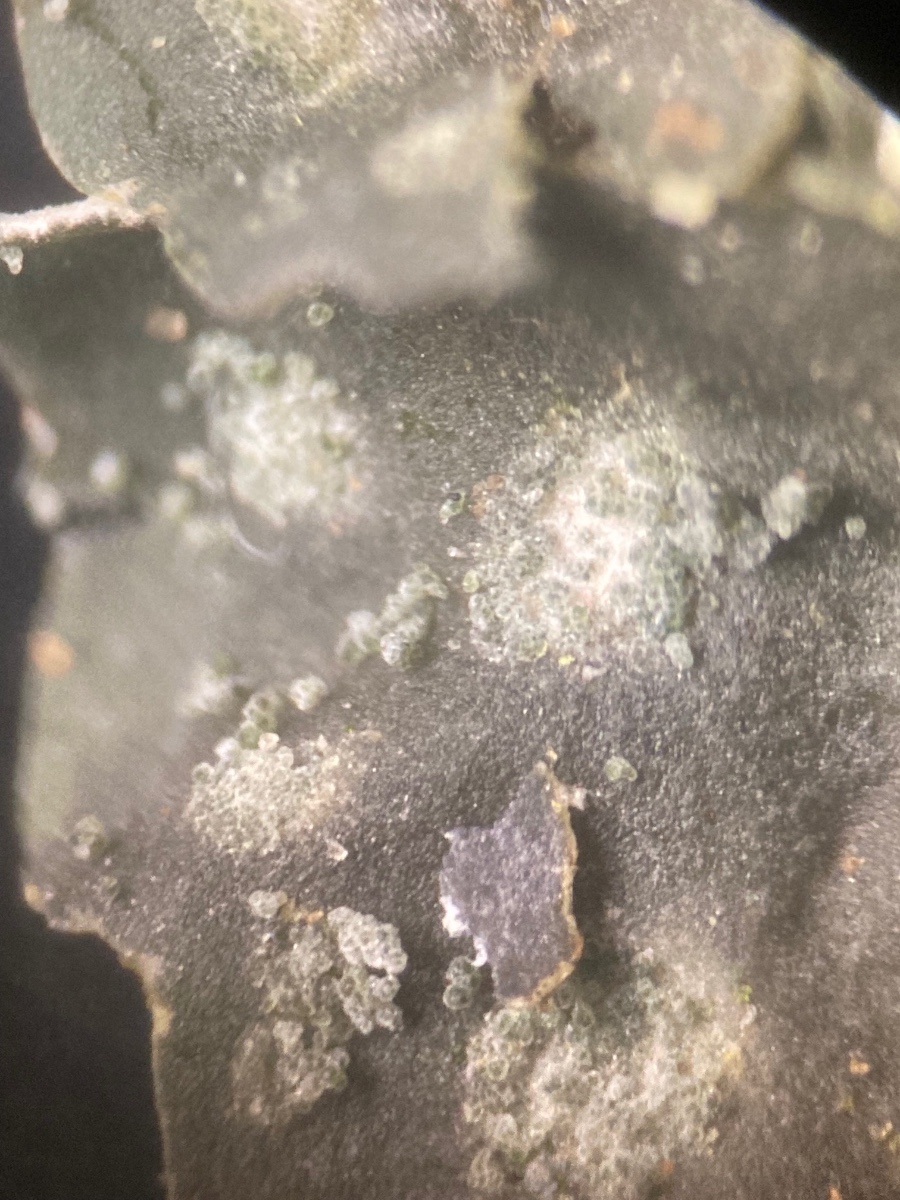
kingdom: Fungi
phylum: Ascomycota
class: Lecanoromycetes
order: Peltigerales
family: Peltigeraceae
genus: Peltigera
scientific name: Peltigera didactyla
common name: liden skjoldlav
